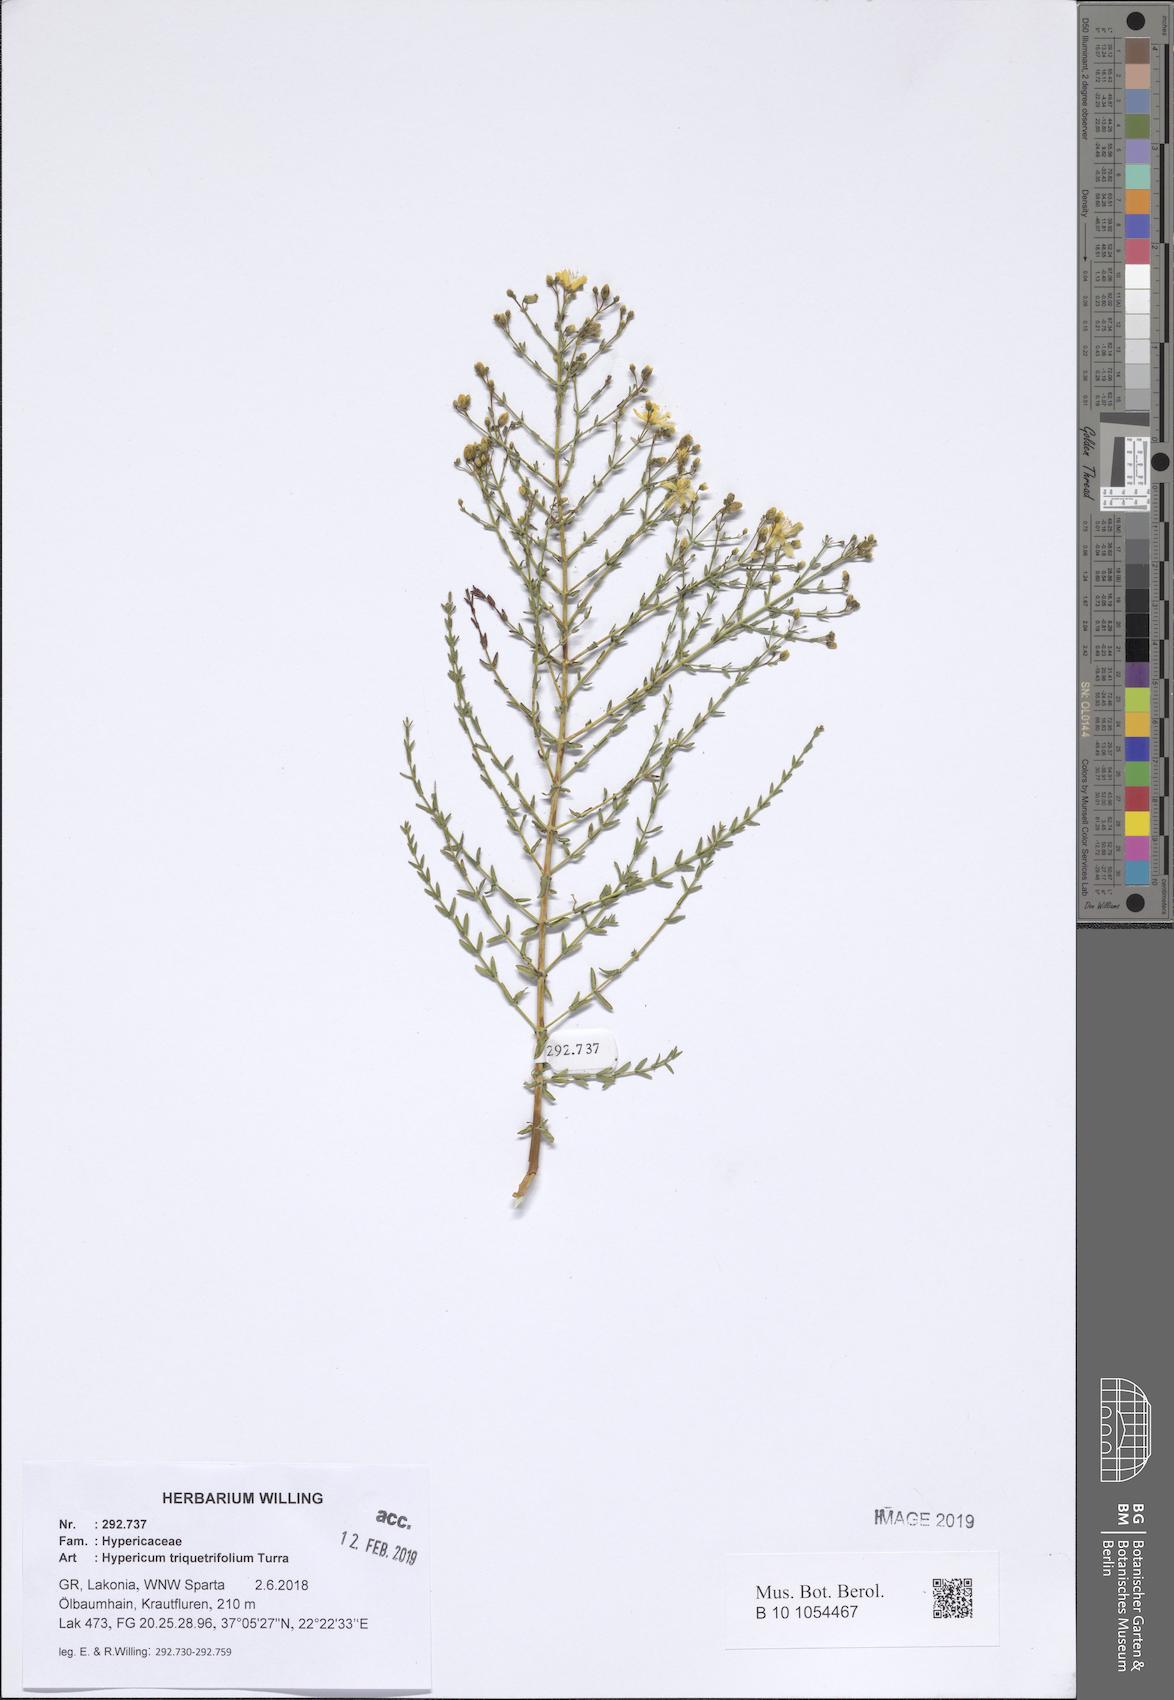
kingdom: Plantae
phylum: Tracheophyta
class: Magnoliopsida
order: Malpighiales
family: Hypericaceae
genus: Hypericum
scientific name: Hypericum triquetrifolium
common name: Tangled hypericum
